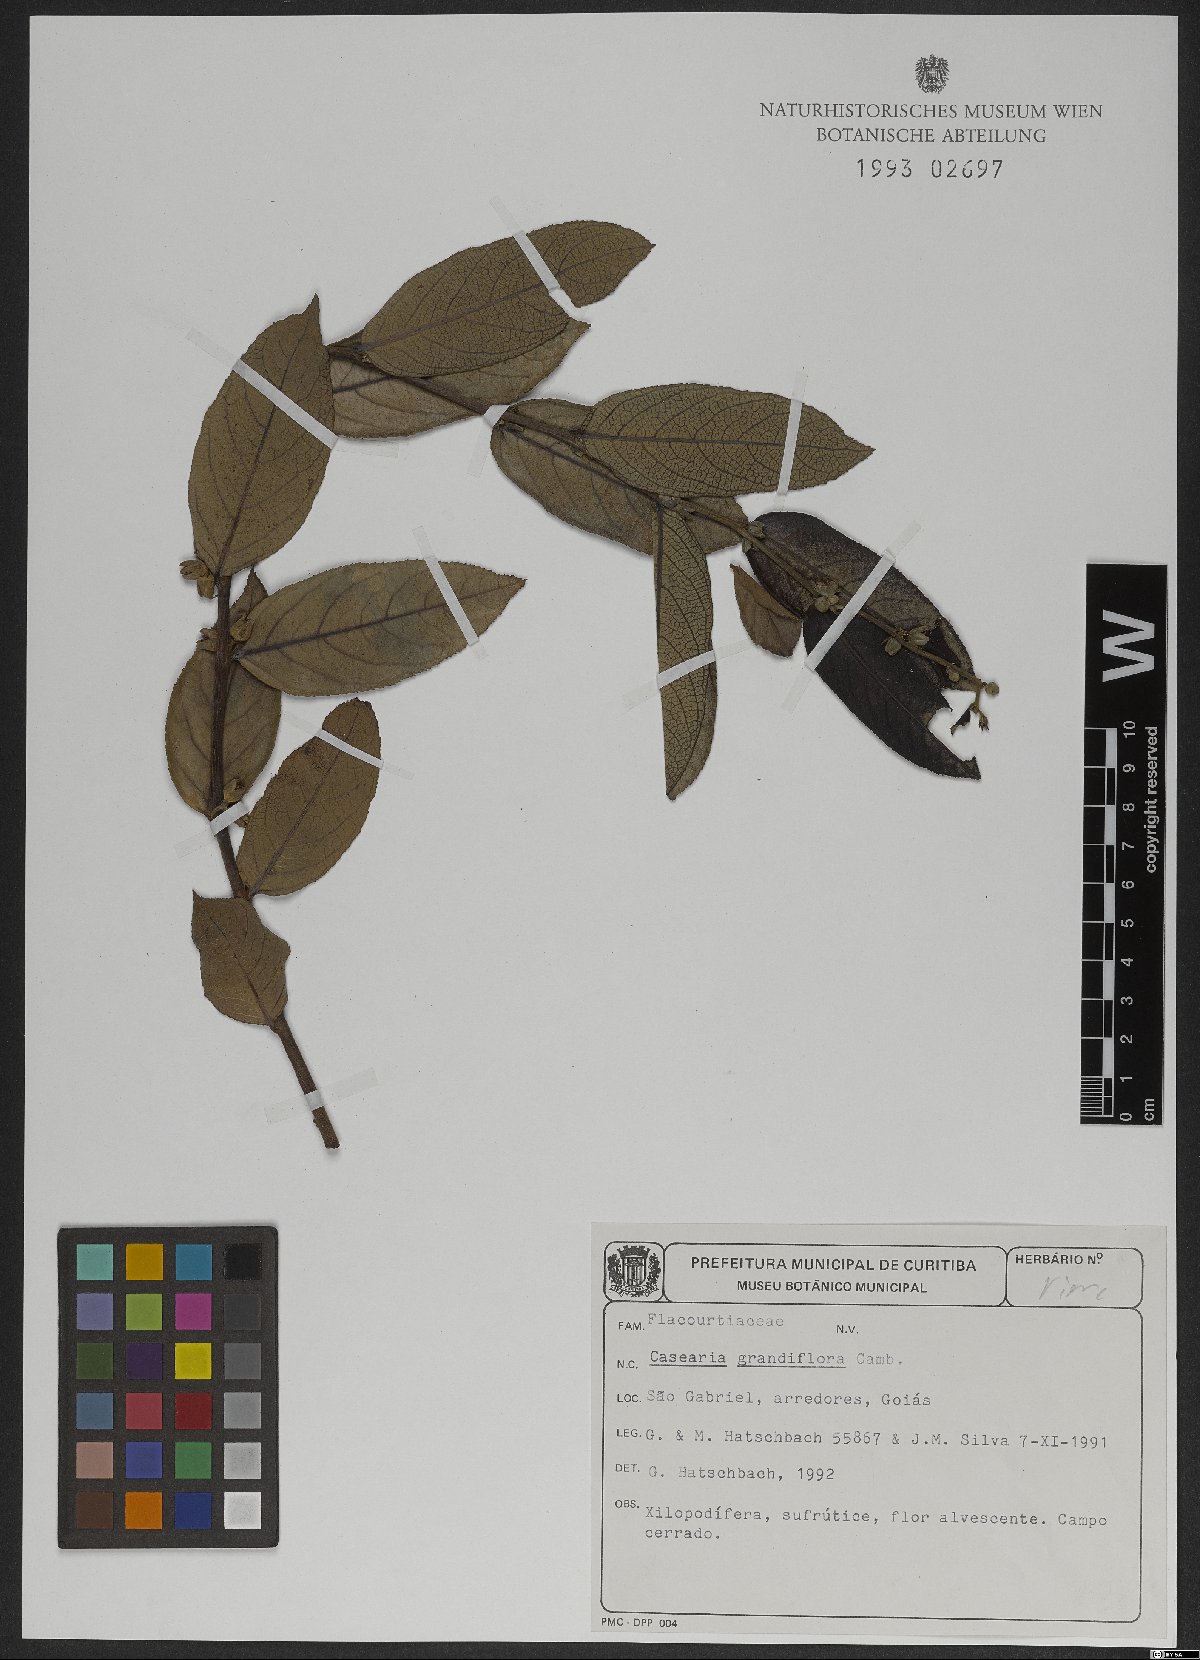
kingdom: Plantae
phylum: Tracheophyta
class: Magnoliopsida
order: Malpighiales
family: Salicaceae
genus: Casearia
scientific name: Casearia grandiflora
